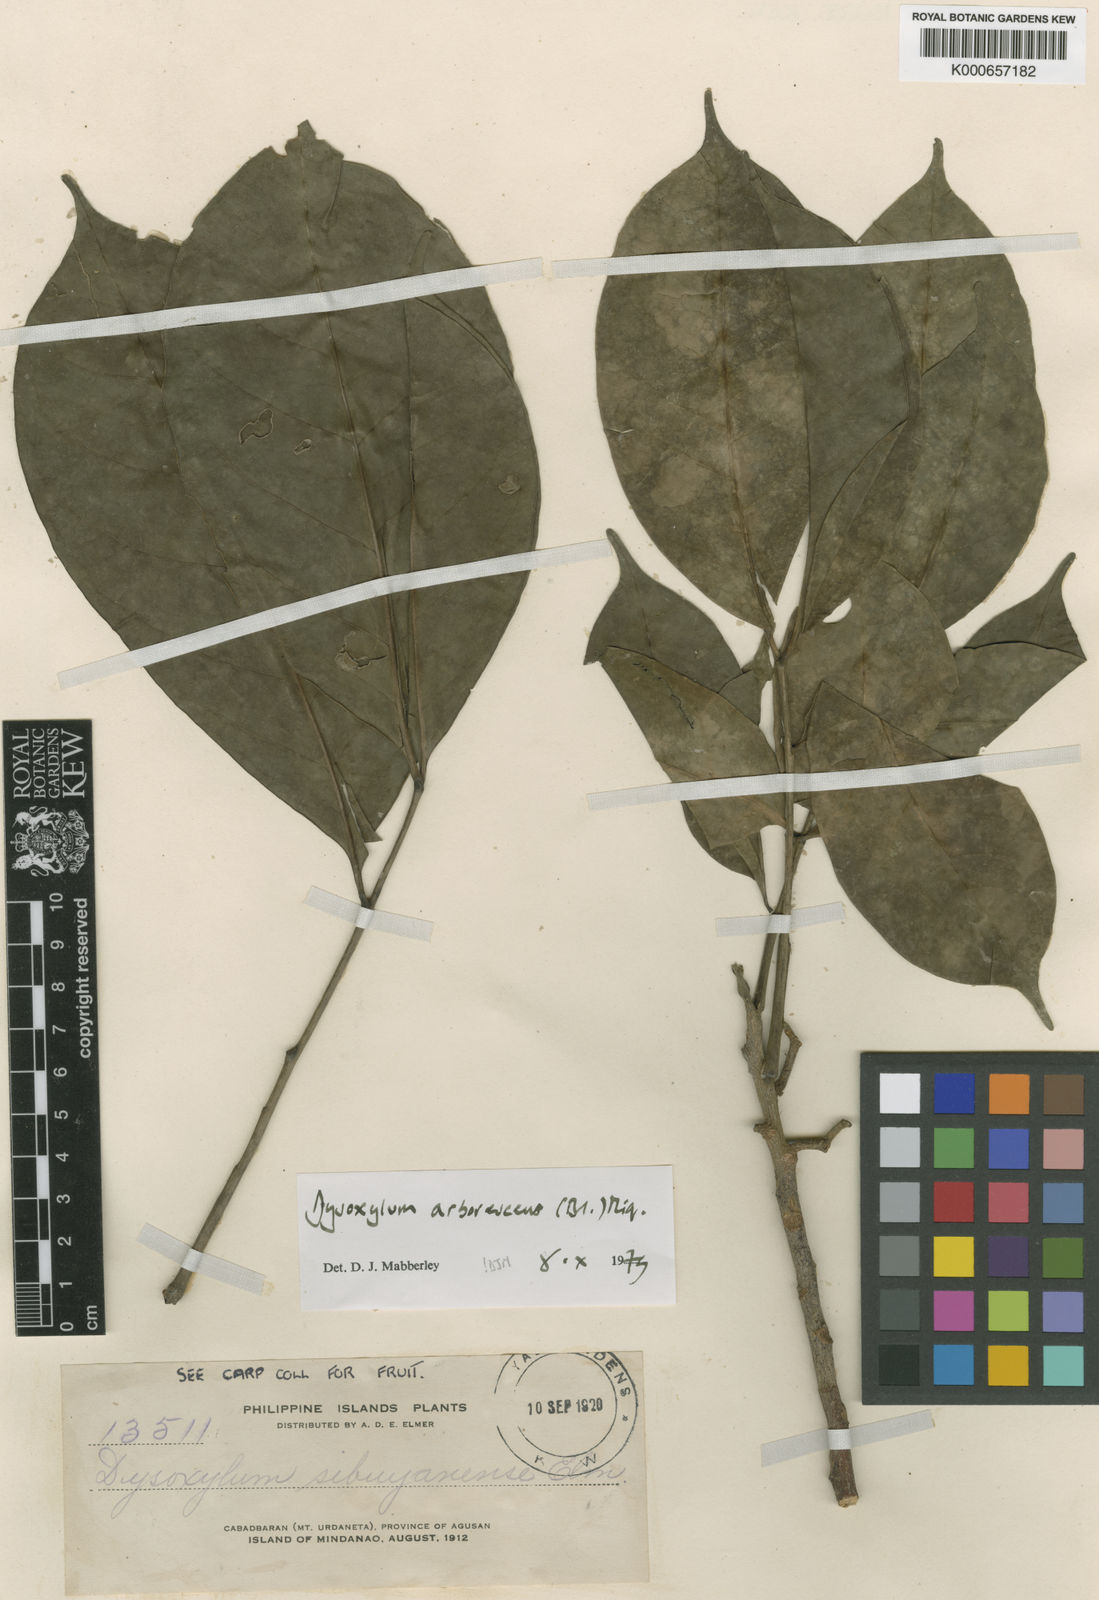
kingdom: Plantae
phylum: Tracheophyta
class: Magnoliopsida
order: Sapindales
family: Meliaceae
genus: Goniocheton
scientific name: Goniocheton arborescens
